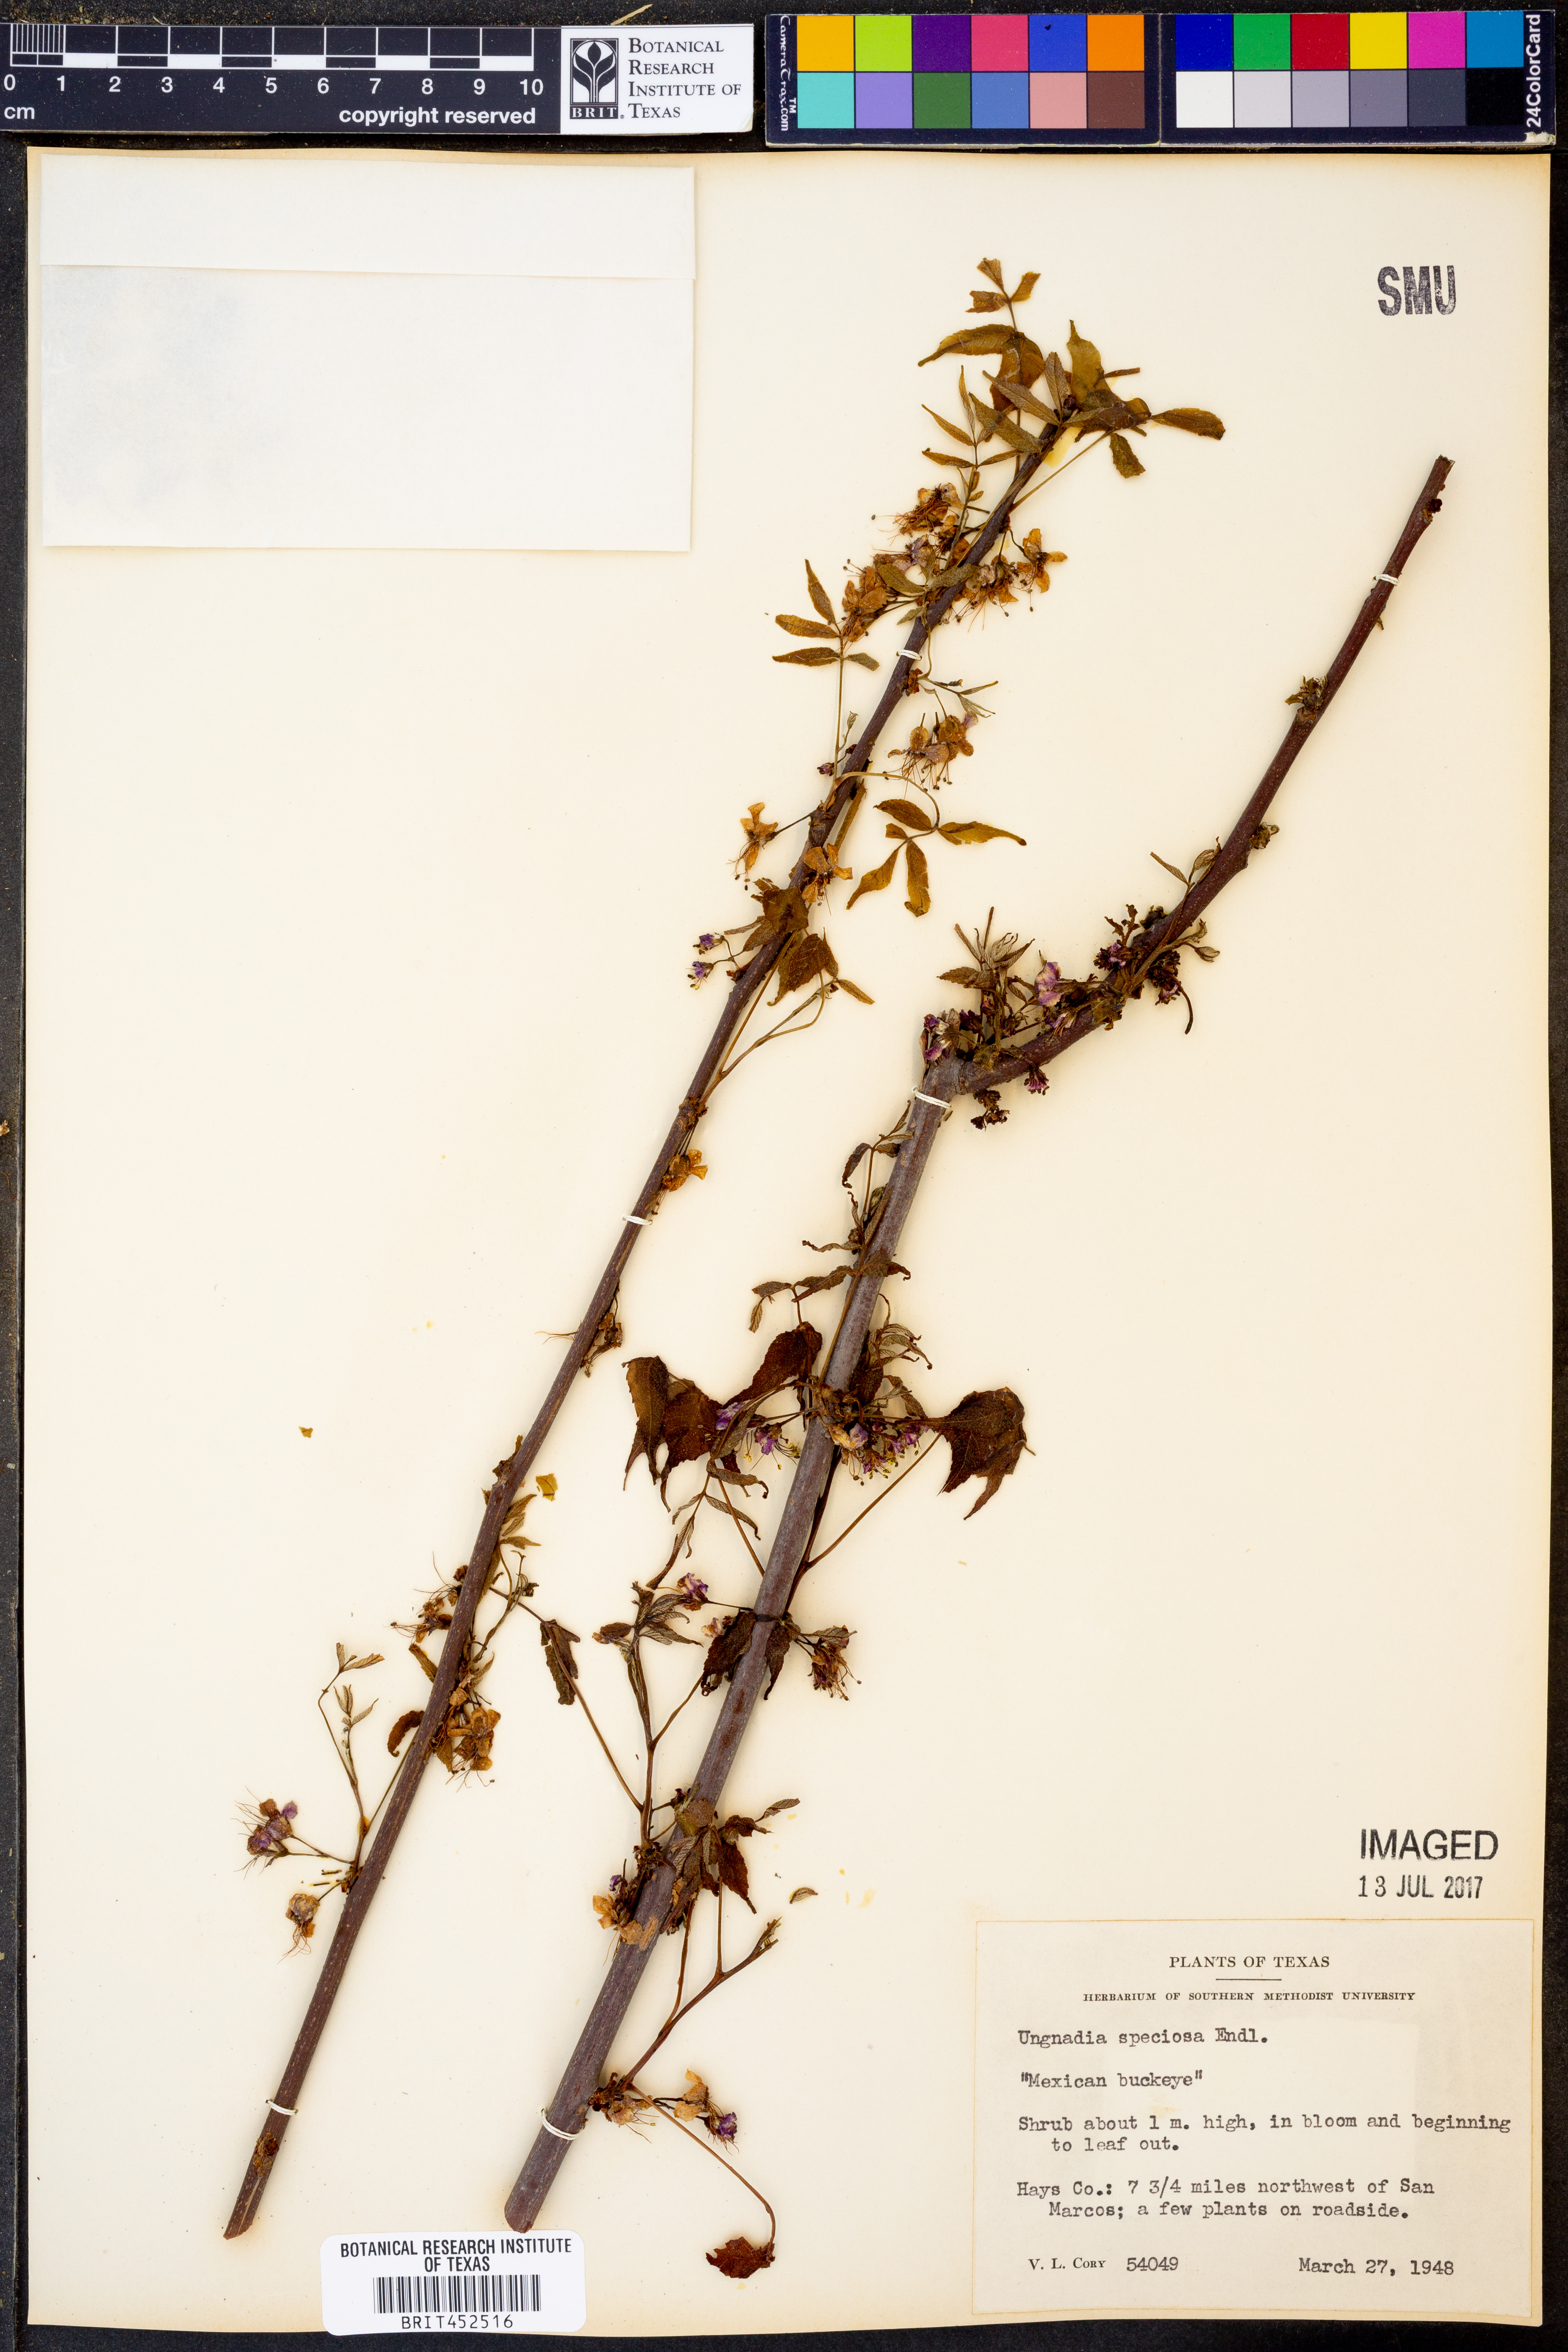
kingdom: Plantae
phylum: Tracheophyta
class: Magnoliopsida
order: Sapindales
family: Sapindaceae
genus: Ungnadia
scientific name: Ungnadia speciosa
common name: Texas-buckeye
